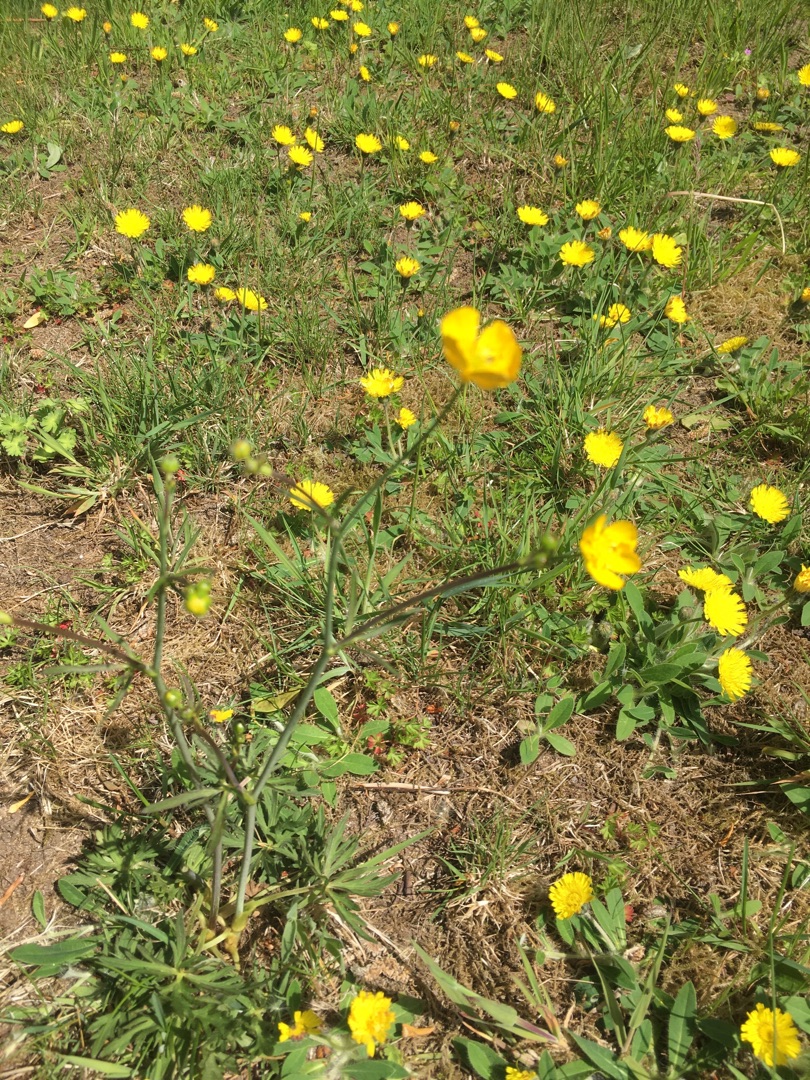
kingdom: Plantae
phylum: Tracheophyta
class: Magnoliopsida
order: Ranunculales
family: Ranunculaceae
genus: Ranunculus
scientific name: Ranunculus acris
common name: Bidende ranunkel
